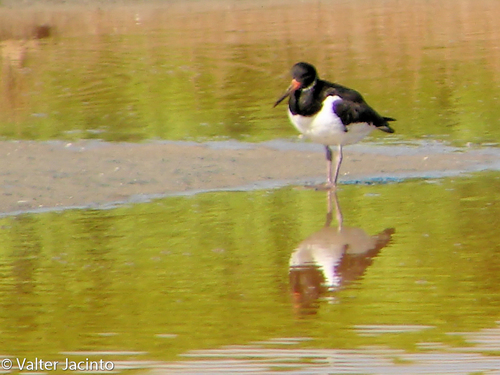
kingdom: Animalia
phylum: Chordata
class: Aves
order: Charadriiformes
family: Haematopodidae
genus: Haematopus
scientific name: Haematopus ostralegus
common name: Eurasian oystercatcher
